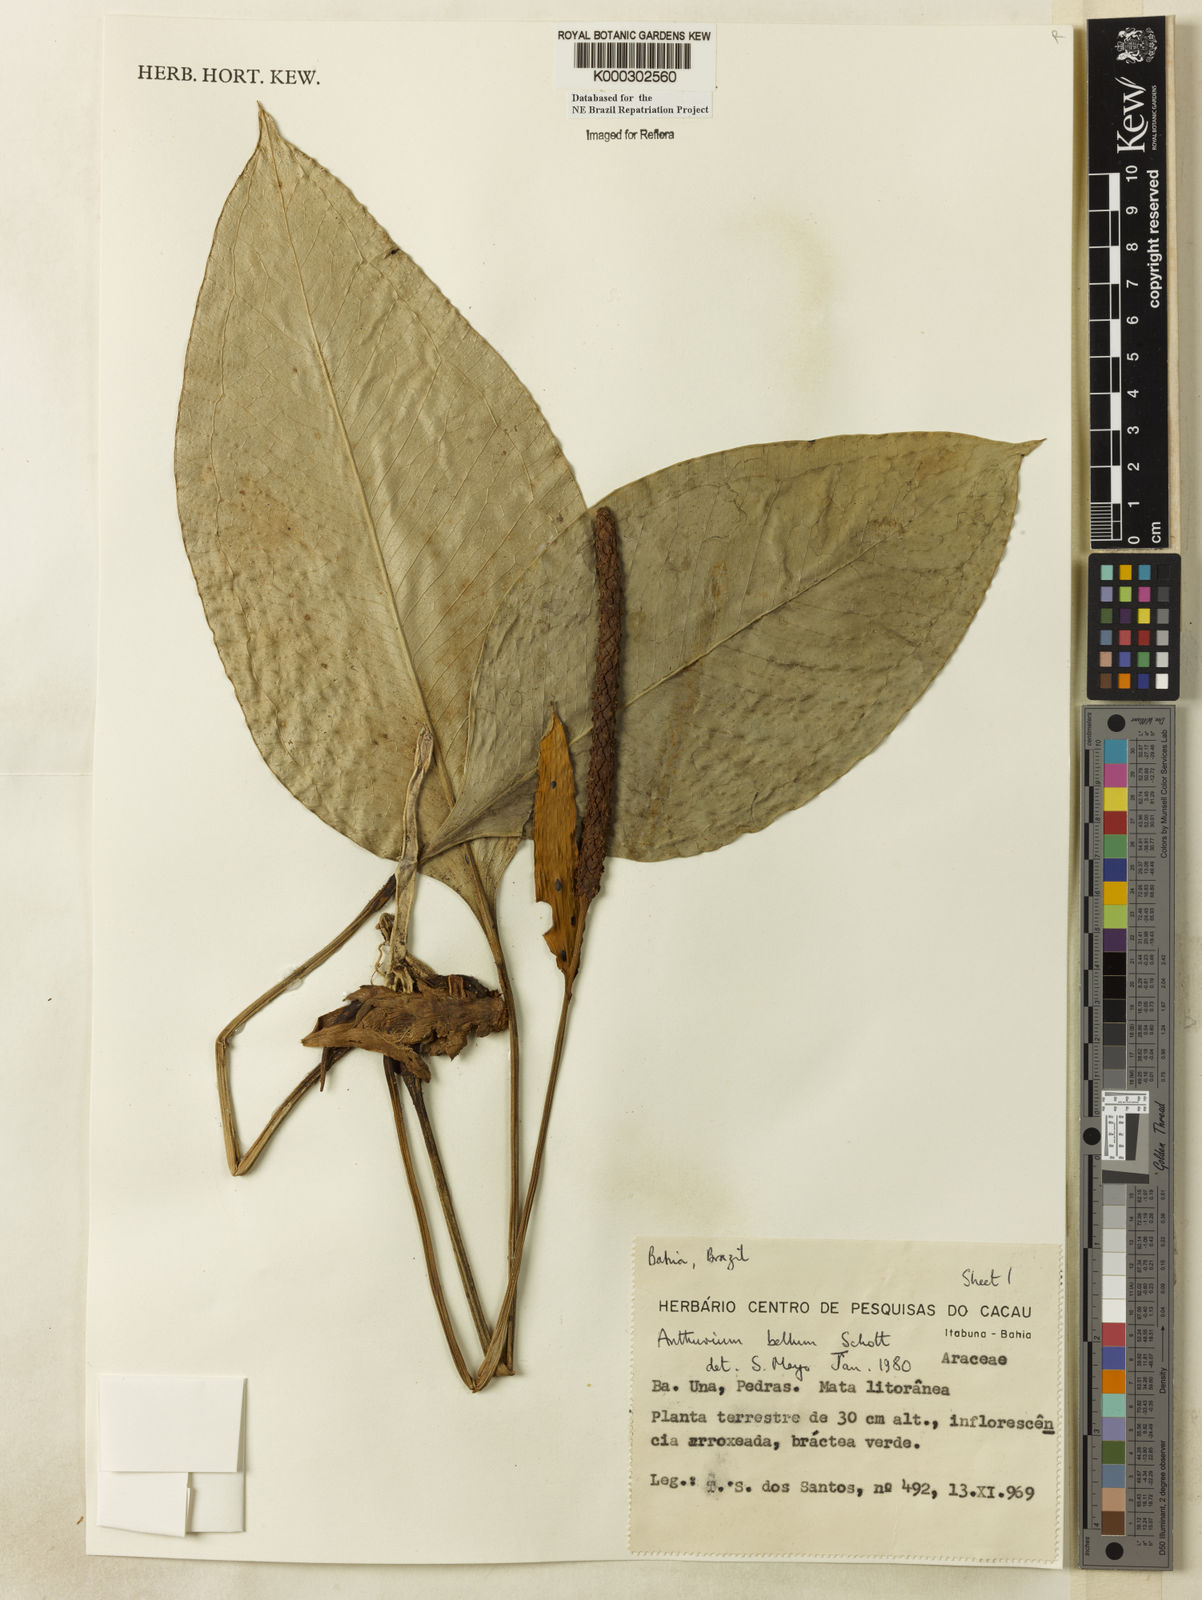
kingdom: Plantae
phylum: Tracheophyta
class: Liliopsida
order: Alismatales
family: Araceae
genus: Anthurium
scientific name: Anthurium bellum
